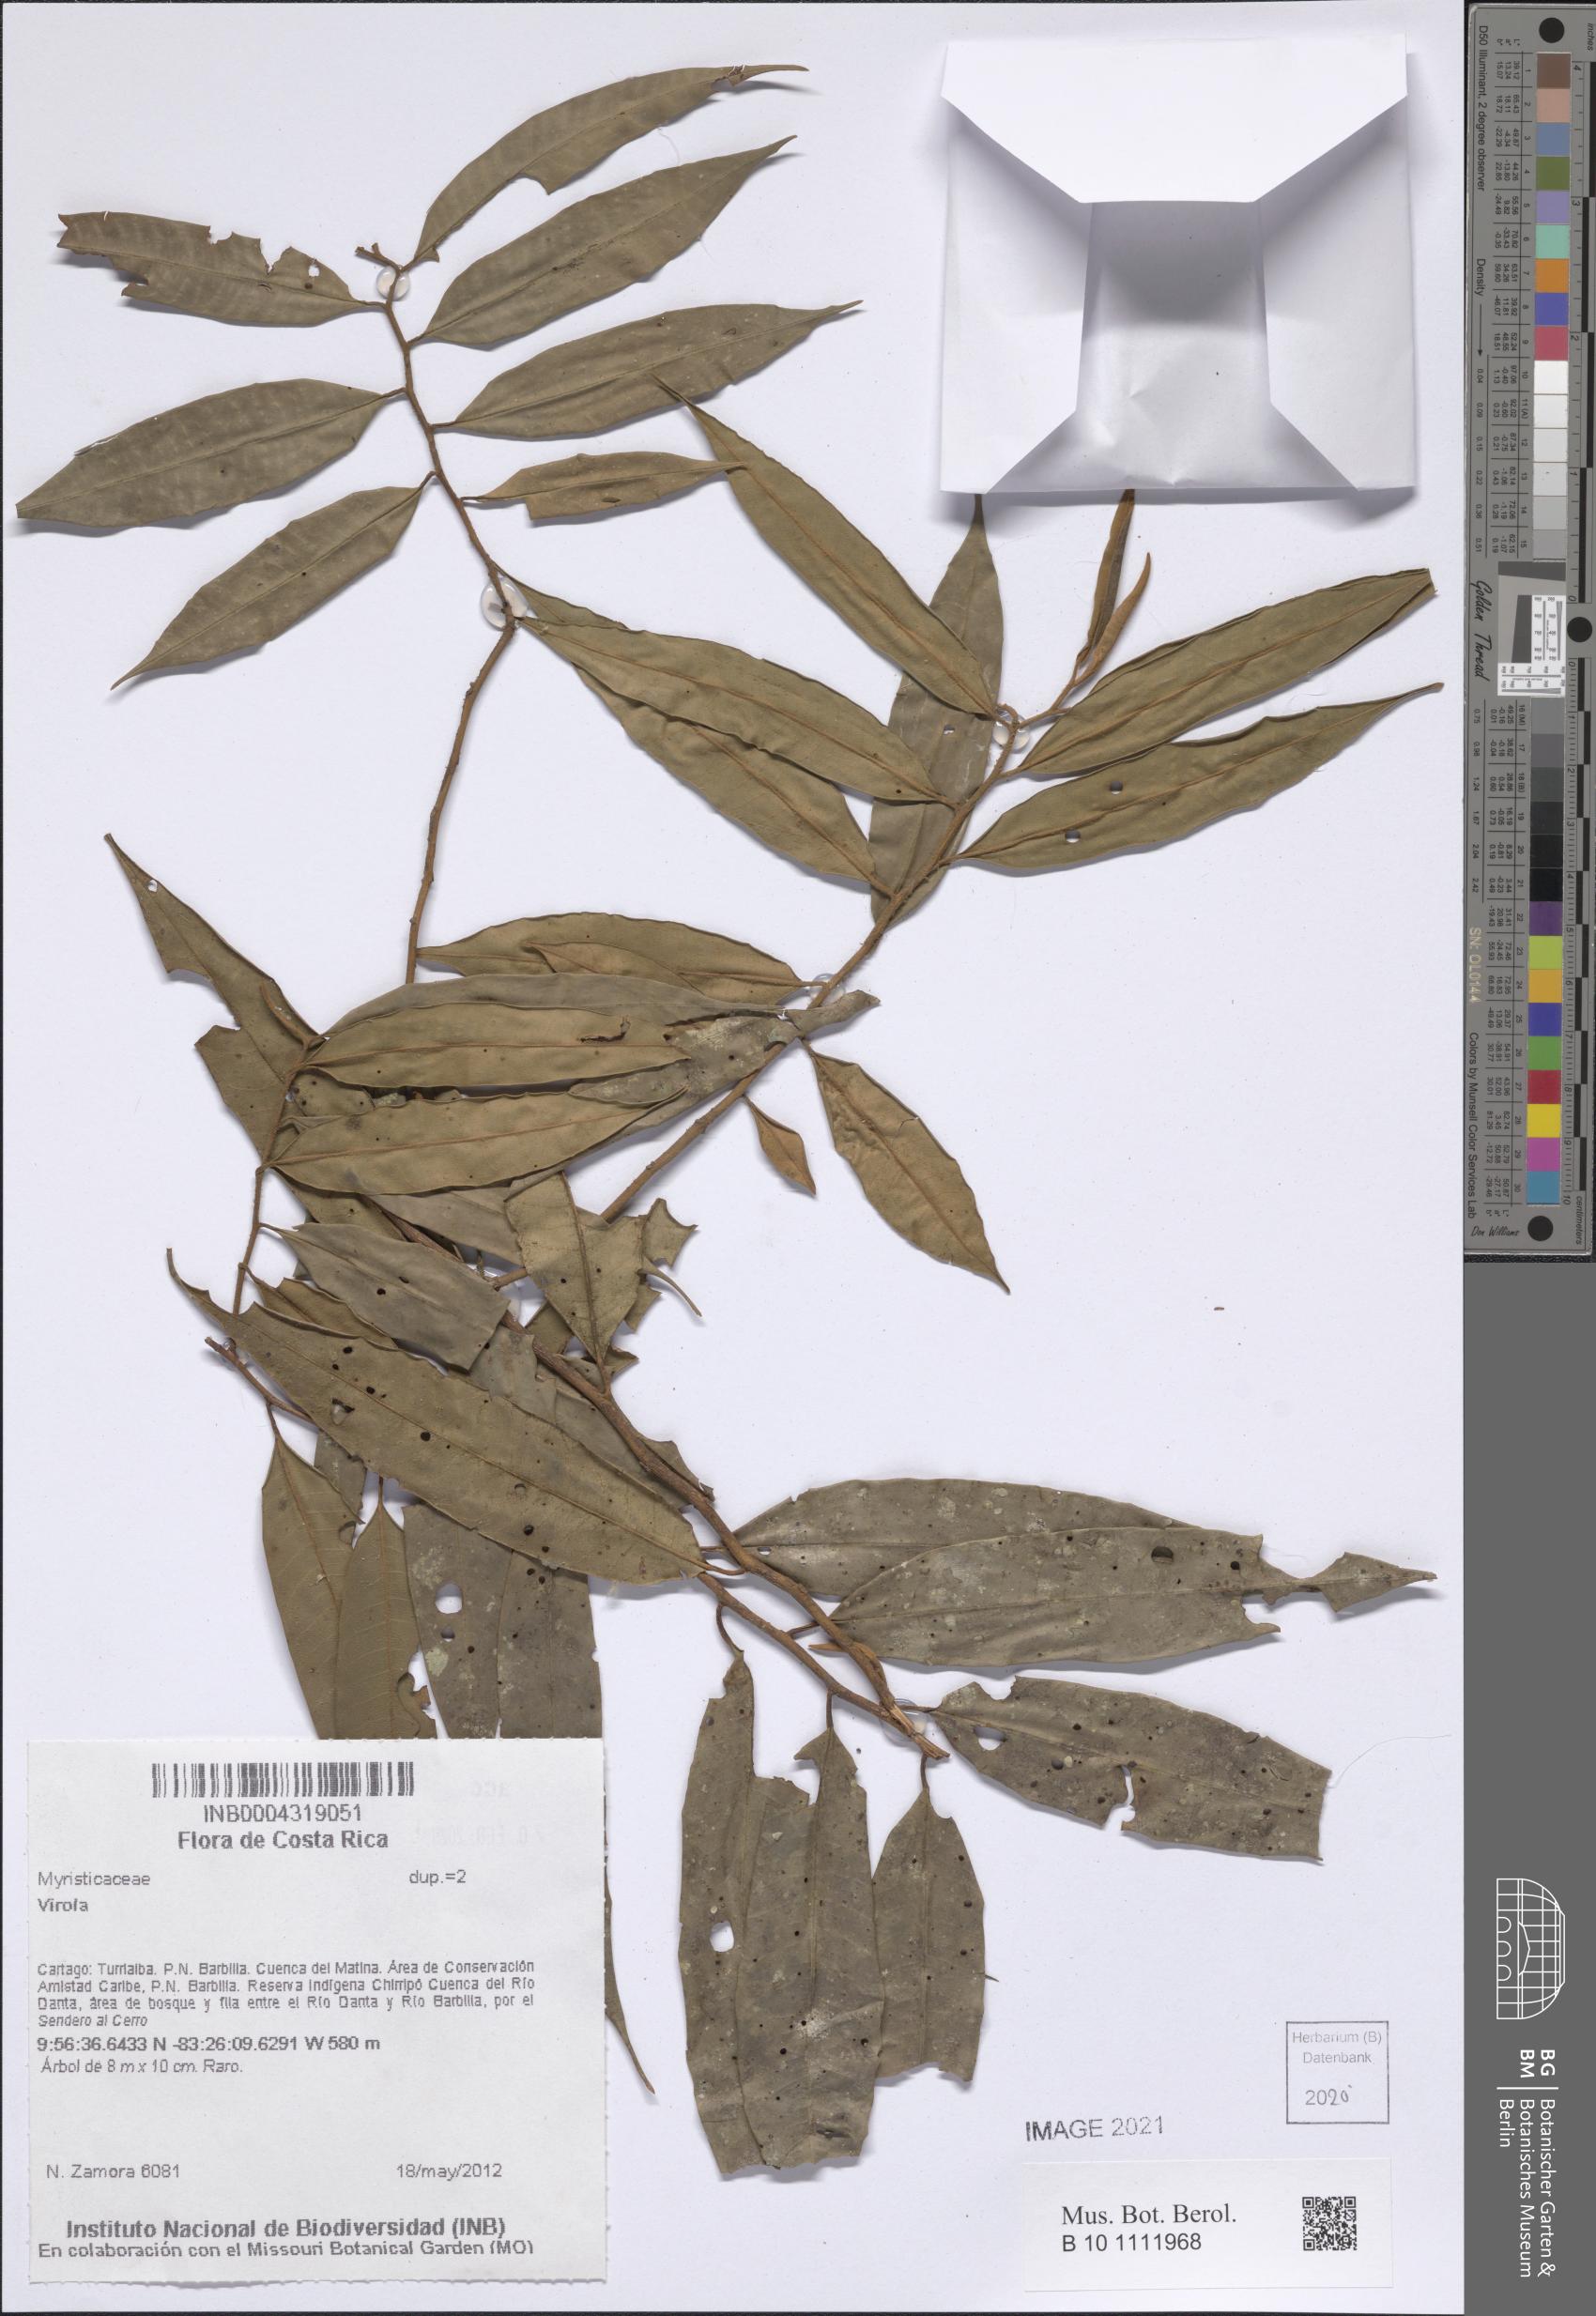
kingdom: Plantae
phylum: Tracheophyta
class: Magnoliopsida
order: Magnoliales
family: Myristicaceae
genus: Virola
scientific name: Virola
